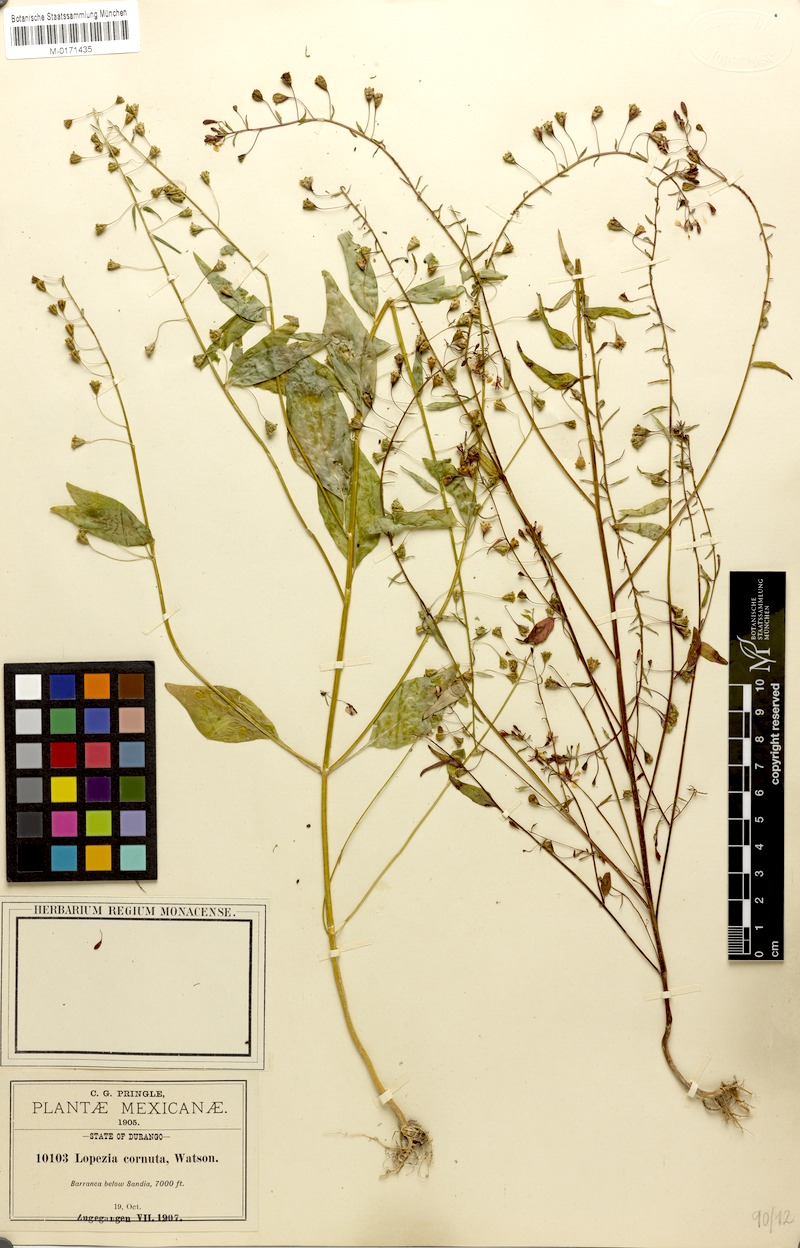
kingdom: Plantae
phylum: Tracheophyta
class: Magnoliopsida
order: Myrtales
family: Onagraceae
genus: Lopezia
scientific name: Lopezia cornuta
